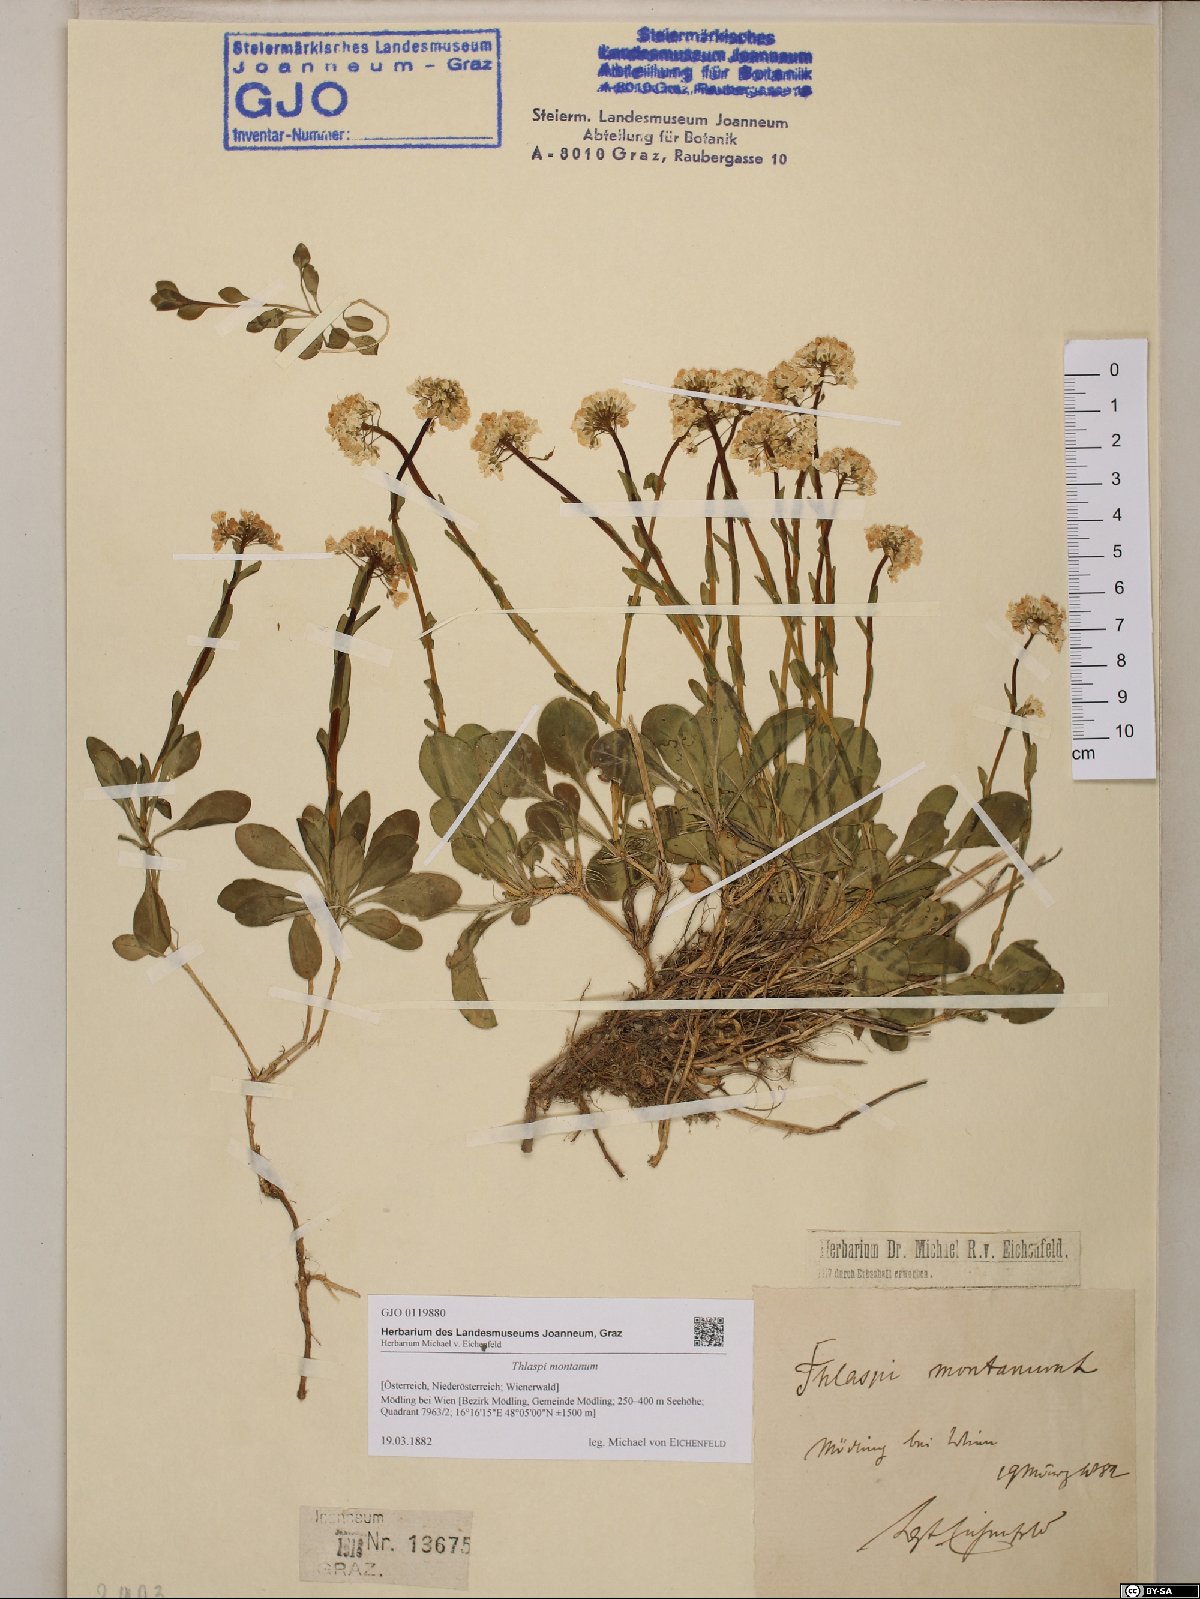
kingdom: Plantae
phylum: Tracheophyta
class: Magnoliopsida
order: Brassicales
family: Brassicaceae
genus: Noccaea
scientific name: Noccaea montana
